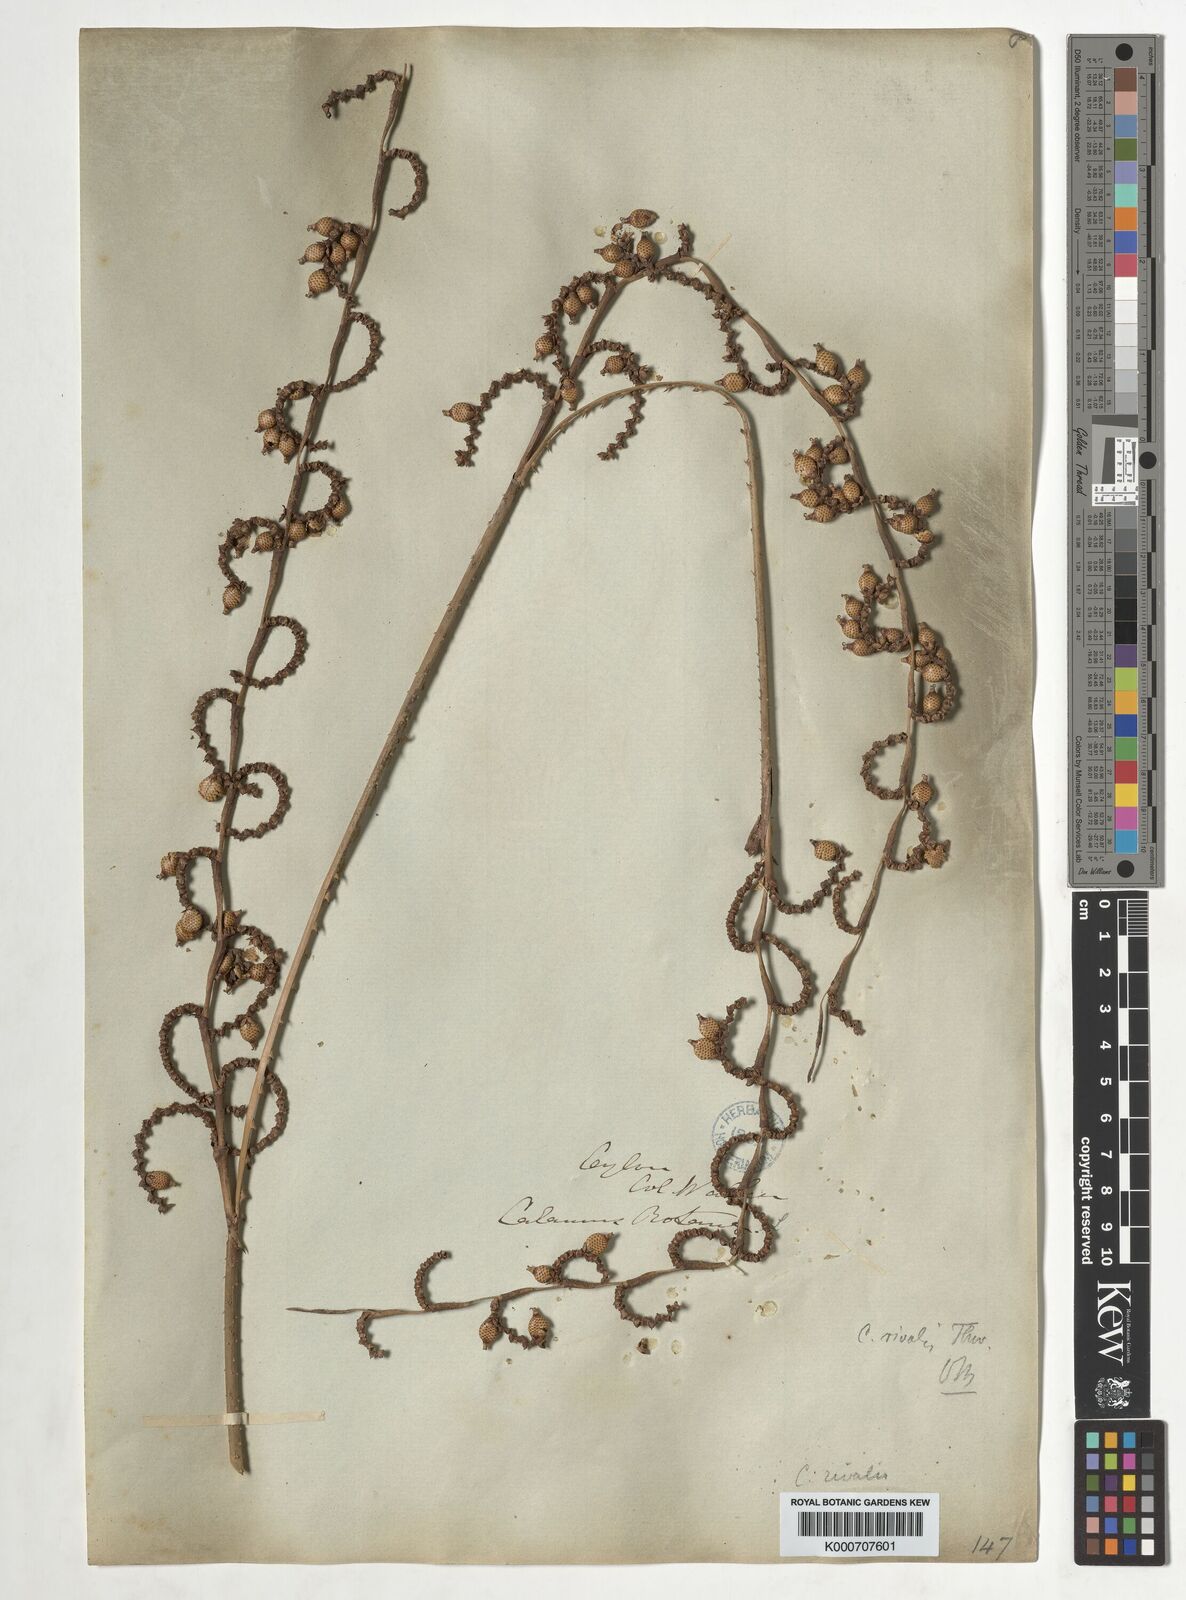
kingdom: Plantae
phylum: Tracheophyta
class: Liliopsida
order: Arecales
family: Arecaceae
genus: Calamus
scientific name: Calamus metzianus
